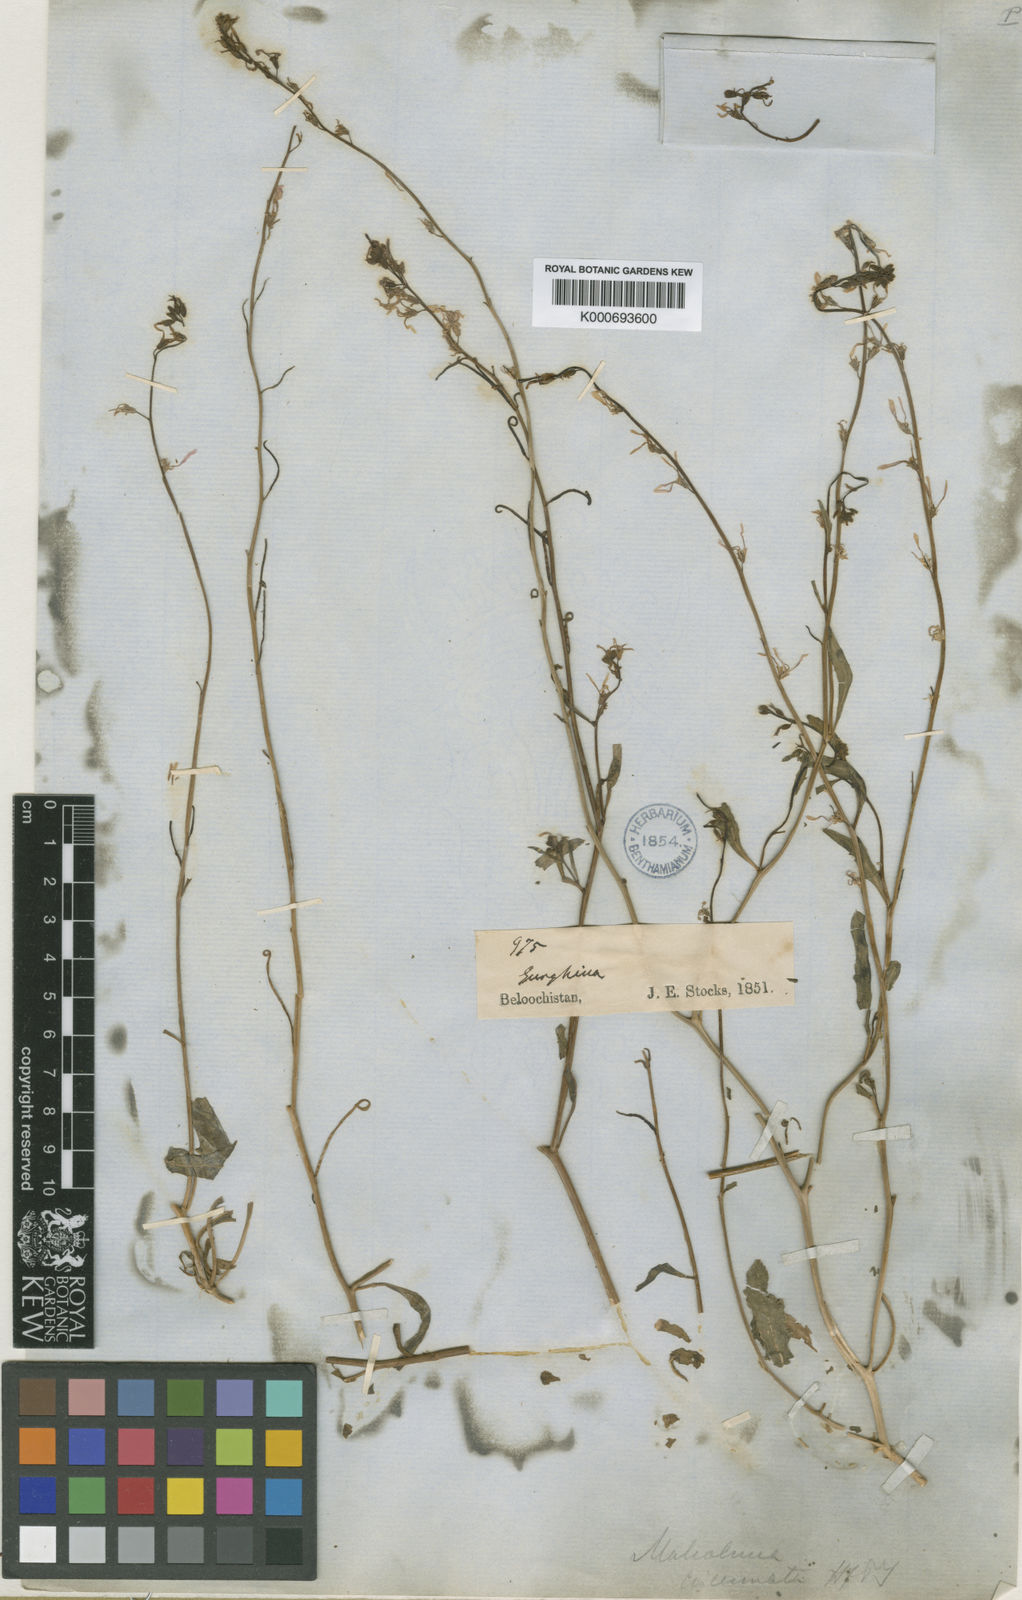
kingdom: Plantae
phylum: Tracheophyta
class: Magnoliopsida
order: Brassicales
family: Brassicaceae
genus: Malcolmia
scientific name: Malcolmia
